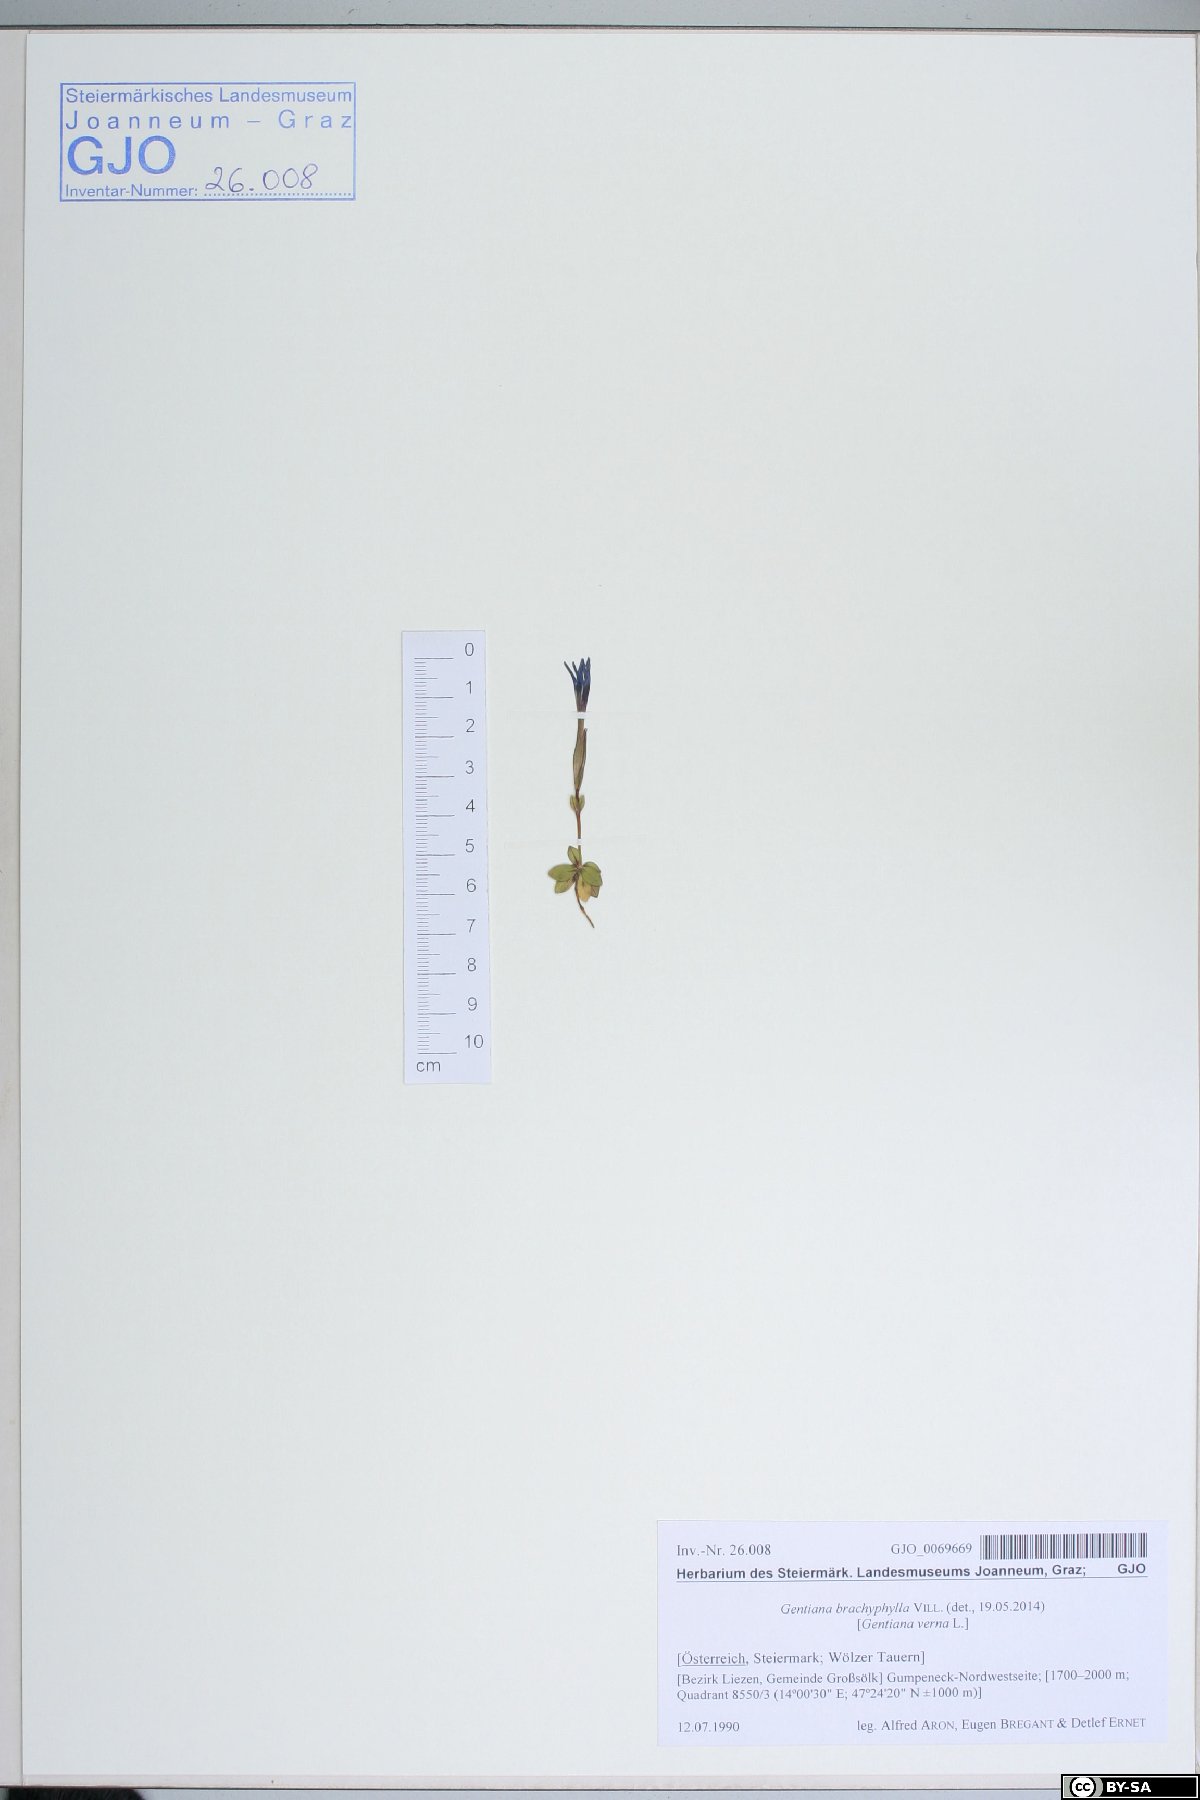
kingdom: Plantae
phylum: Tracheophyta
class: Magnoliopsida
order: Gentianales
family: Gentianaceae
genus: Gentiana
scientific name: Gentiana brachyphylla
